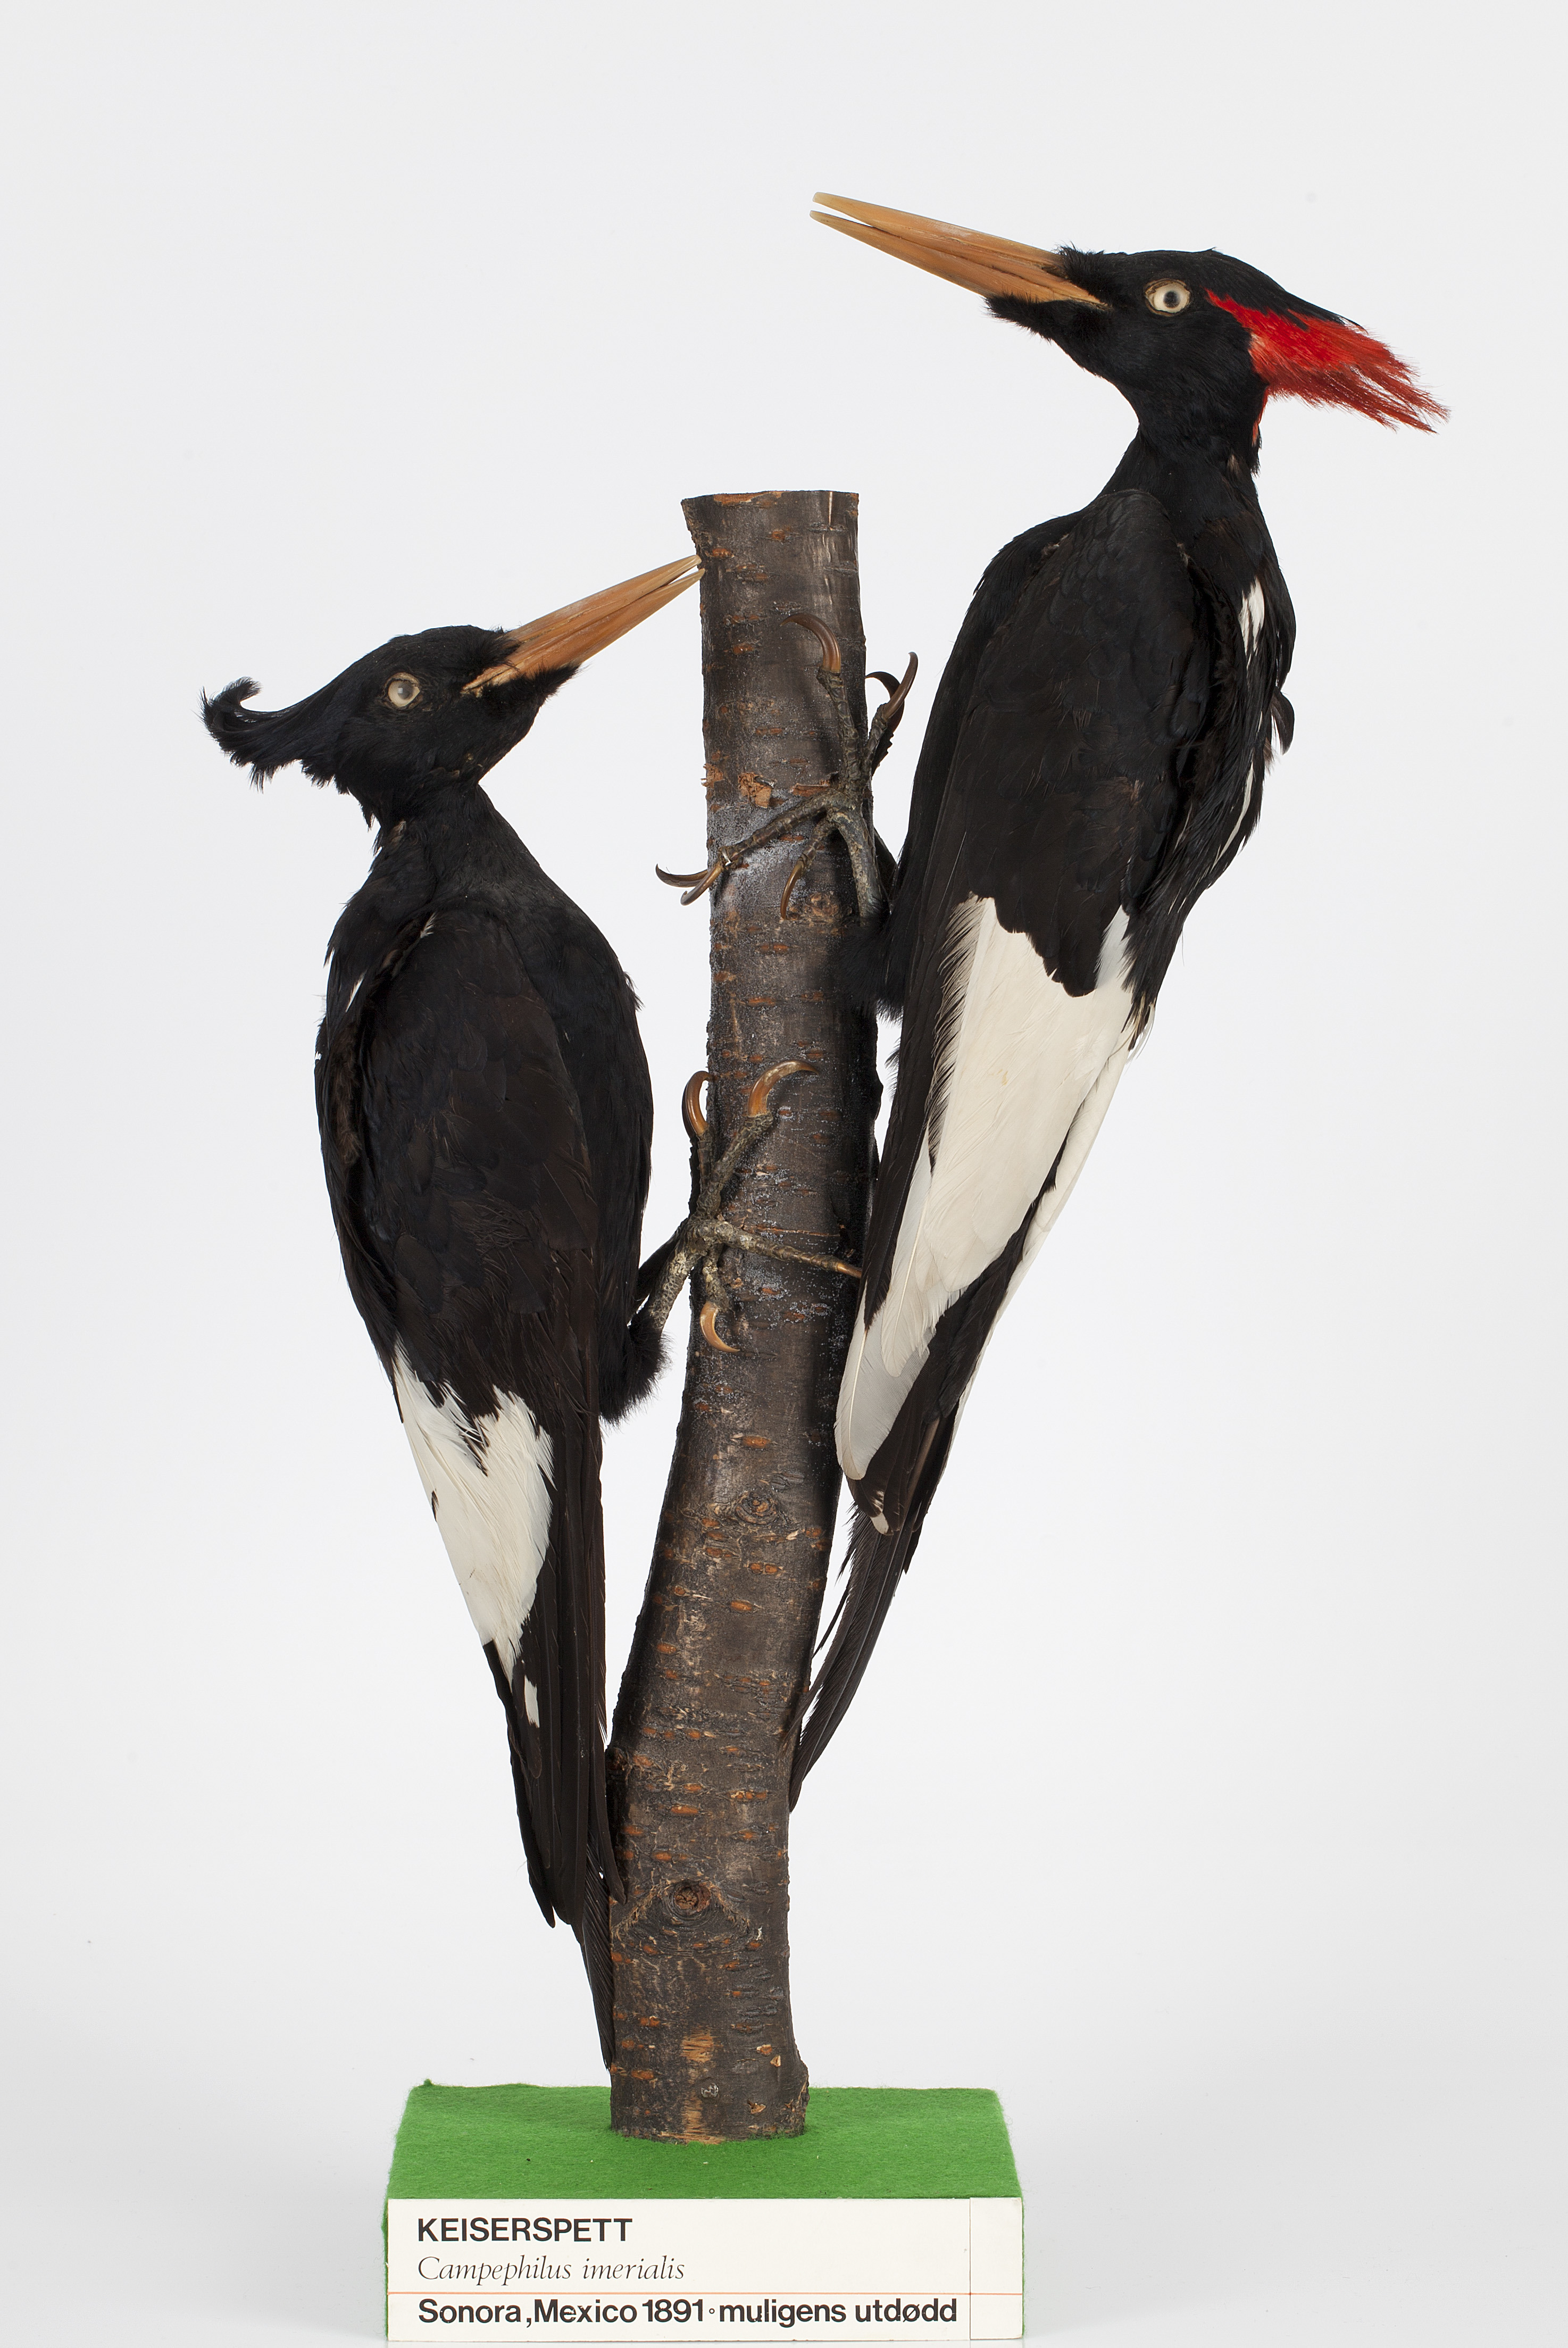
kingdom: Animalia
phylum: Chordata
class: Aves
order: Piciformes
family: Picidae
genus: Campephilus
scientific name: Campephilus imperialis
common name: Imperial woodpecker
